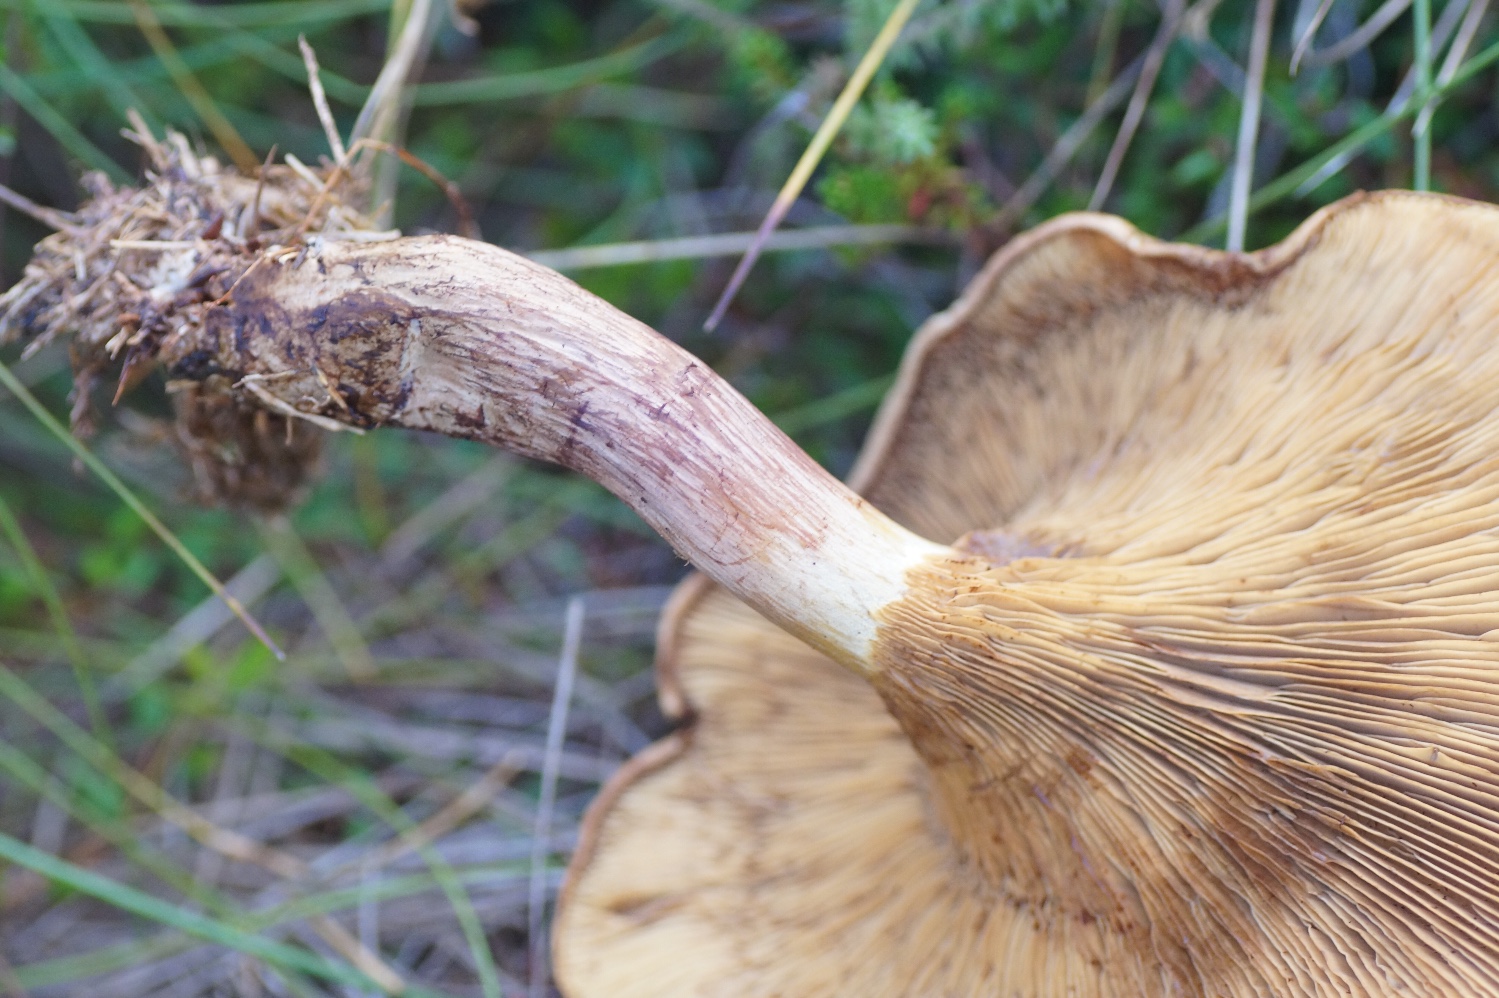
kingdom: Fungi
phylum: Basidiomycota
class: Agaricomycetes
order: Boletales
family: Paxillaceae
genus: Paxillus
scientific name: Paxillus involutus
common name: almindelig netbladhat
